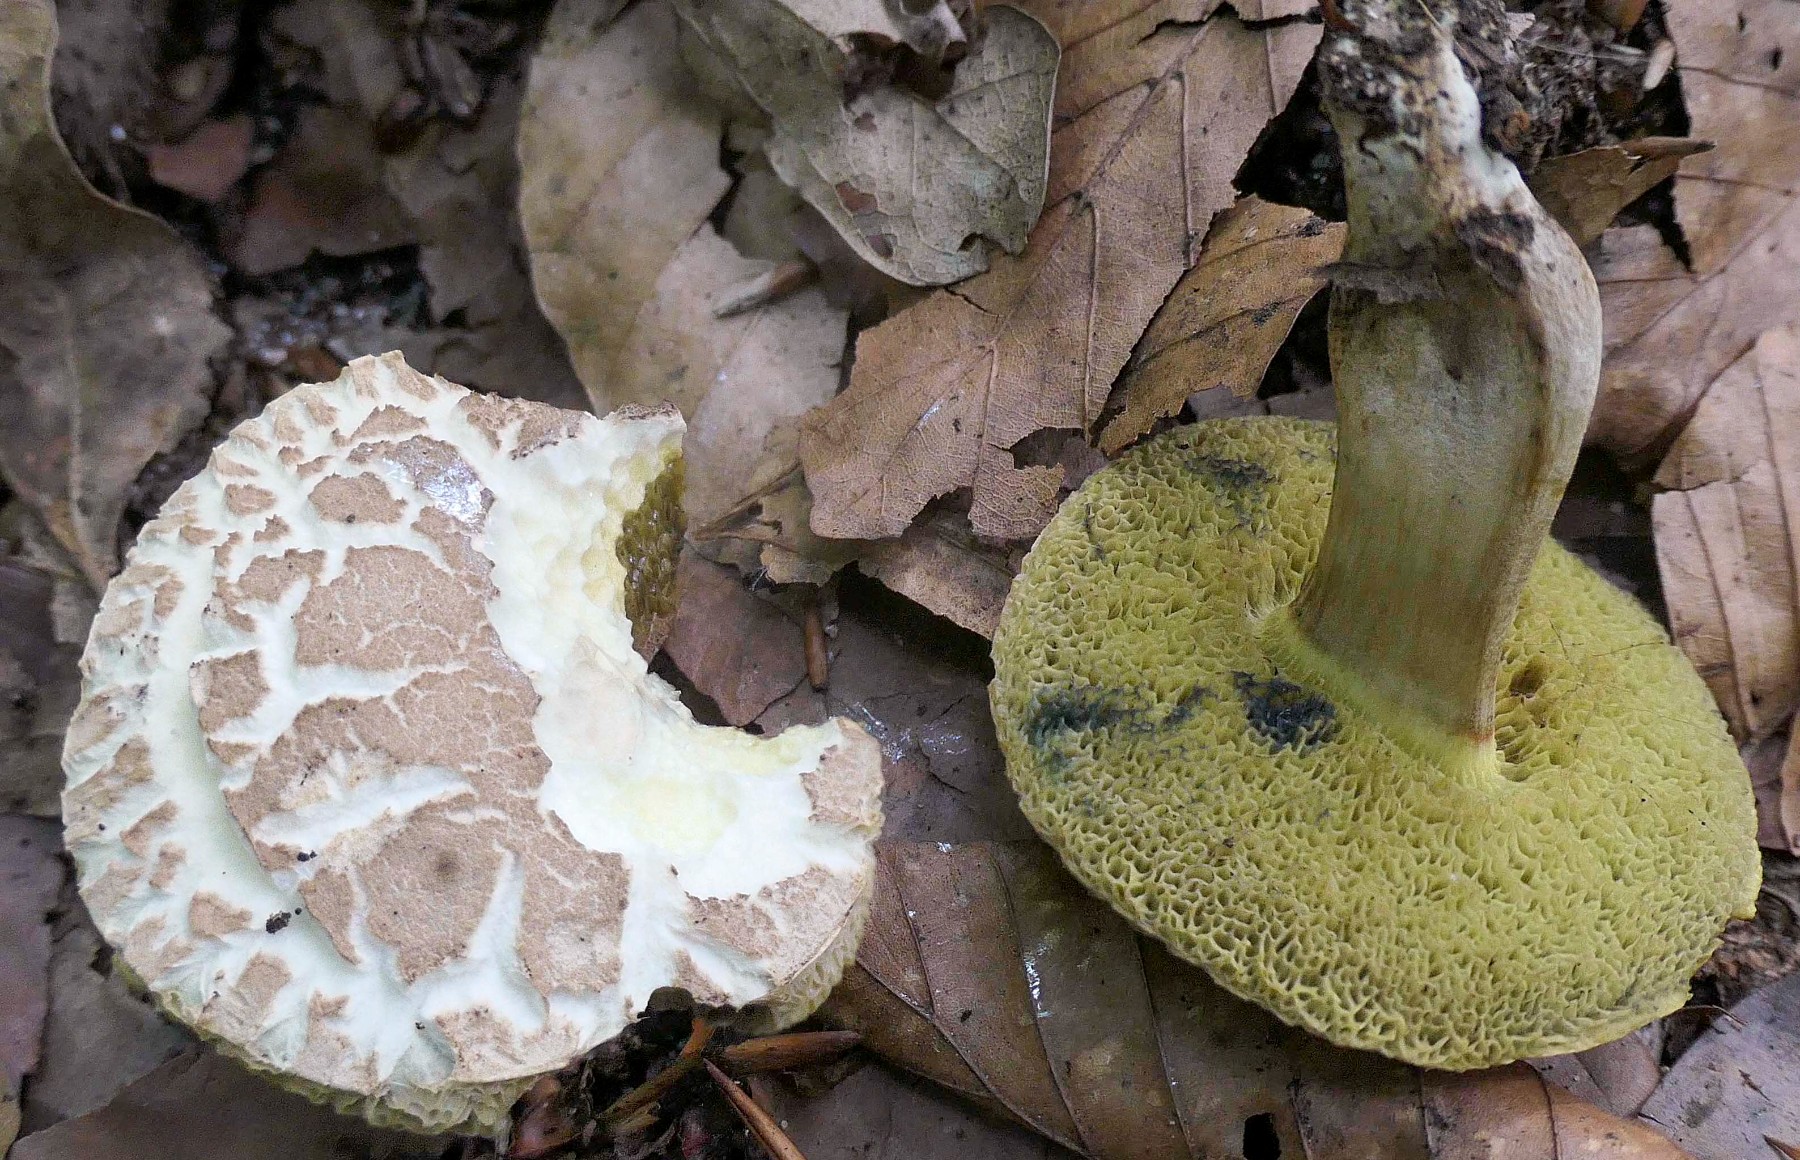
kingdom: Fungi
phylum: Basidiomycota
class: Agaricomycetes
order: Boletales
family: Boletaceae
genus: Xerocomellus
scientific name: Xerocomellus porosporus
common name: hvidsprukken rørhat
